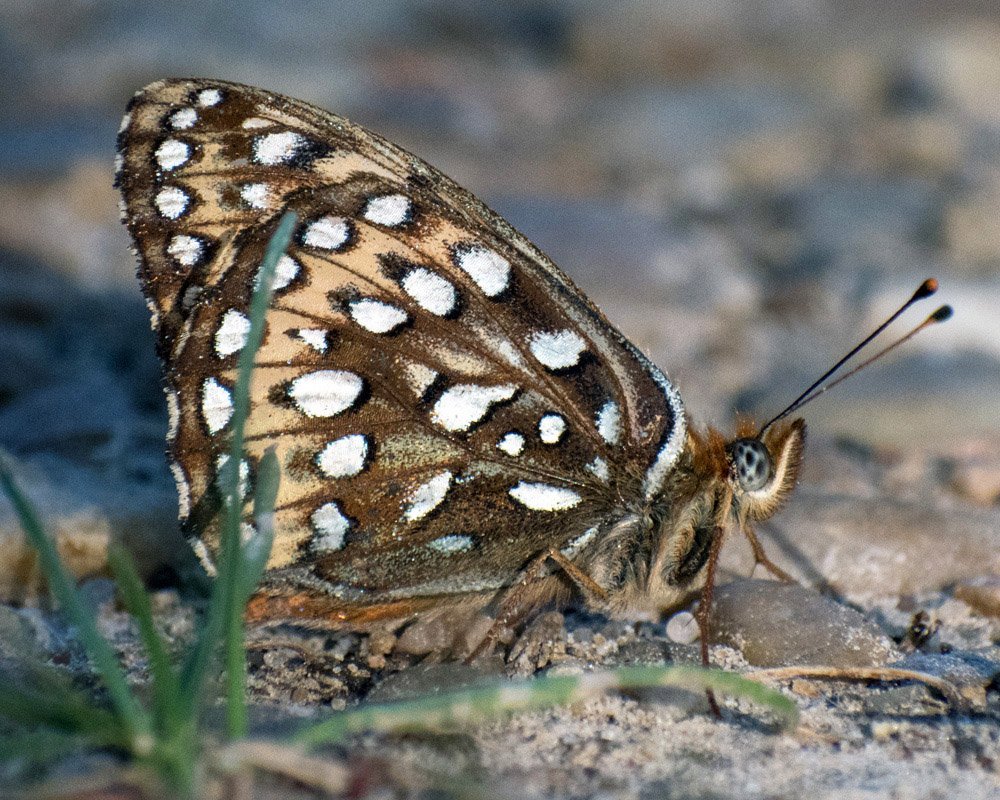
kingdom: Animalia
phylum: Arthropoda
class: Insecta
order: Lepidoptera
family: Nymphalidae
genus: Speyeria
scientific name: Speyeria atlantis
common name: Atlantis Fritillary
